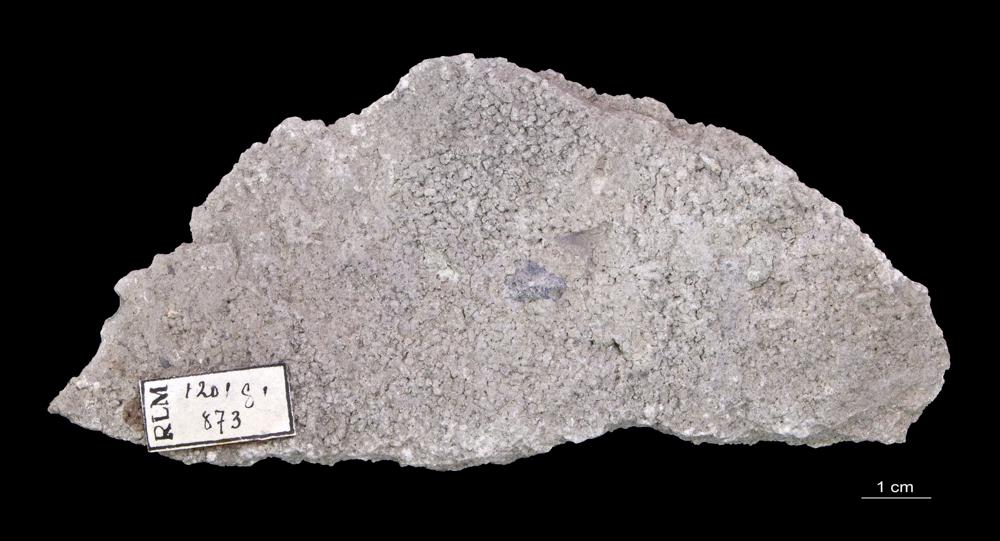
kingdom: Animalia
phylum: Annelida
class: Polychaeta
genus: Volborthella
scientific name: Volborthella tenuis
